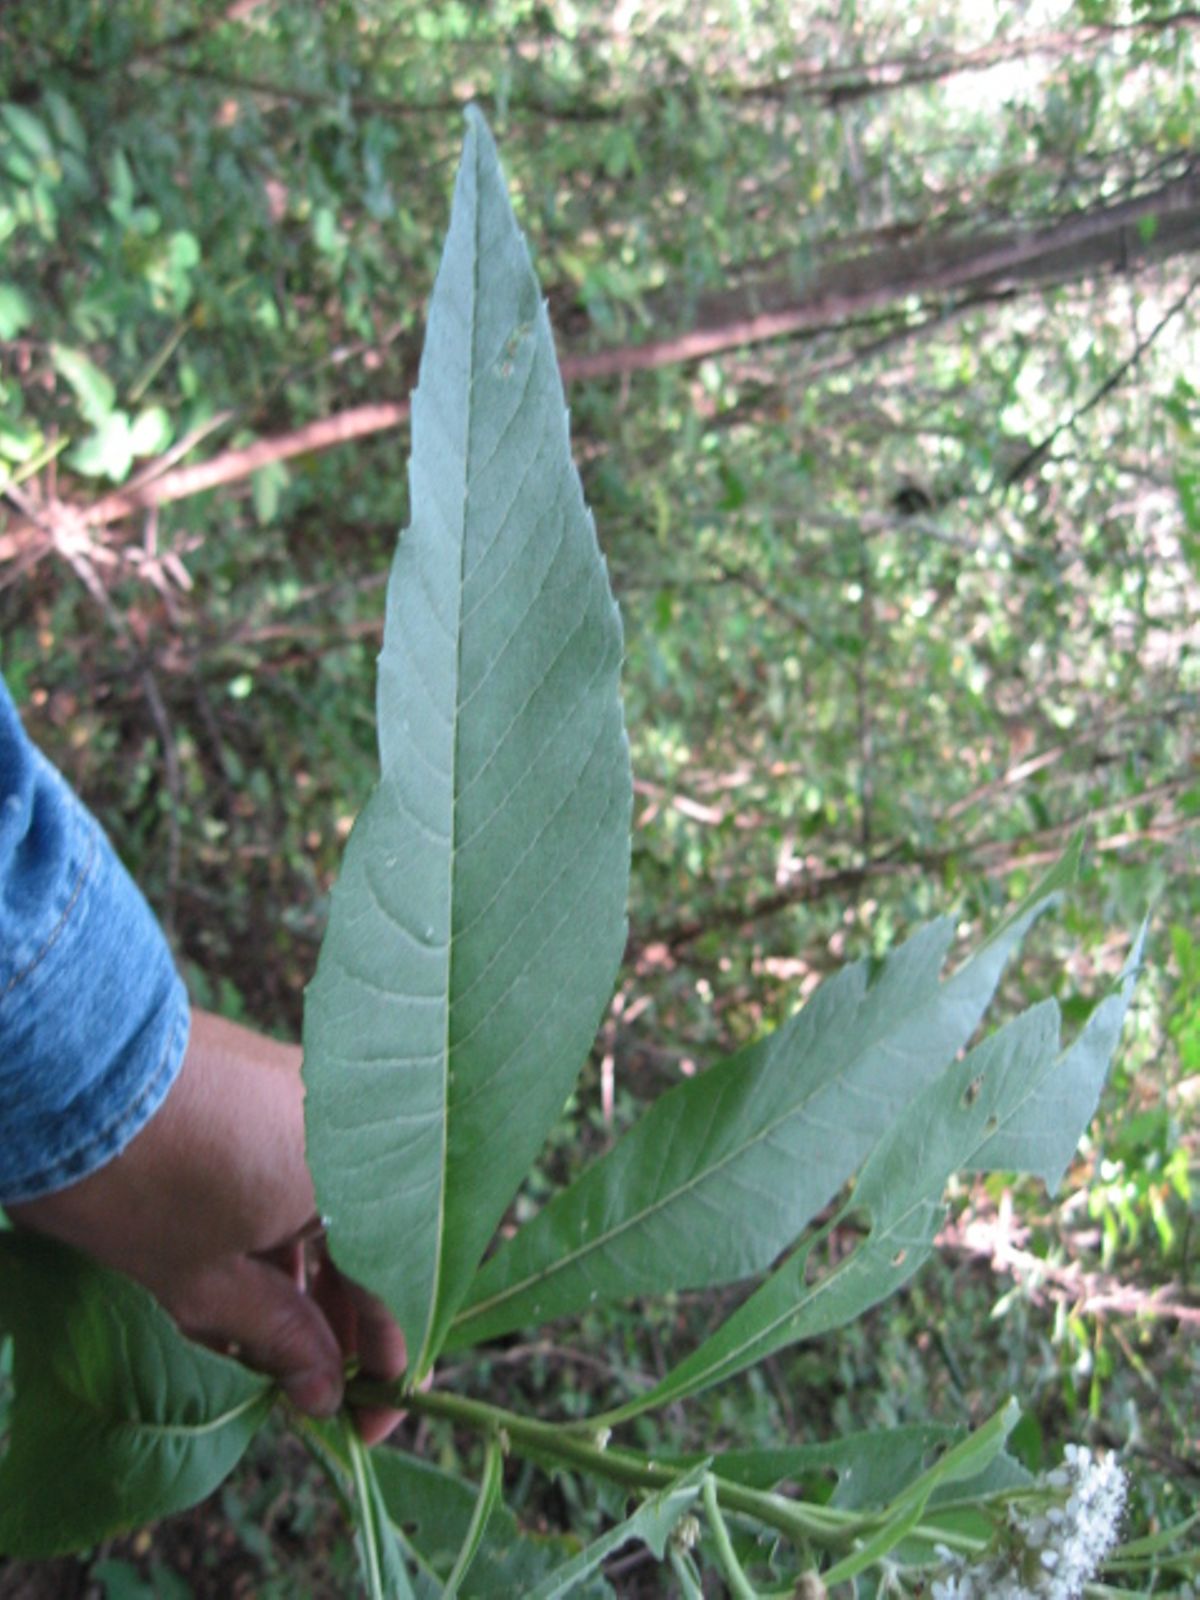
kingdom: Plantae
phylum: Tracheophyta
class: Magnoliopsida
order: Asterales
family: Asteraceae
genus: Verbesina
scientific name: Verbesina guatemalensis
